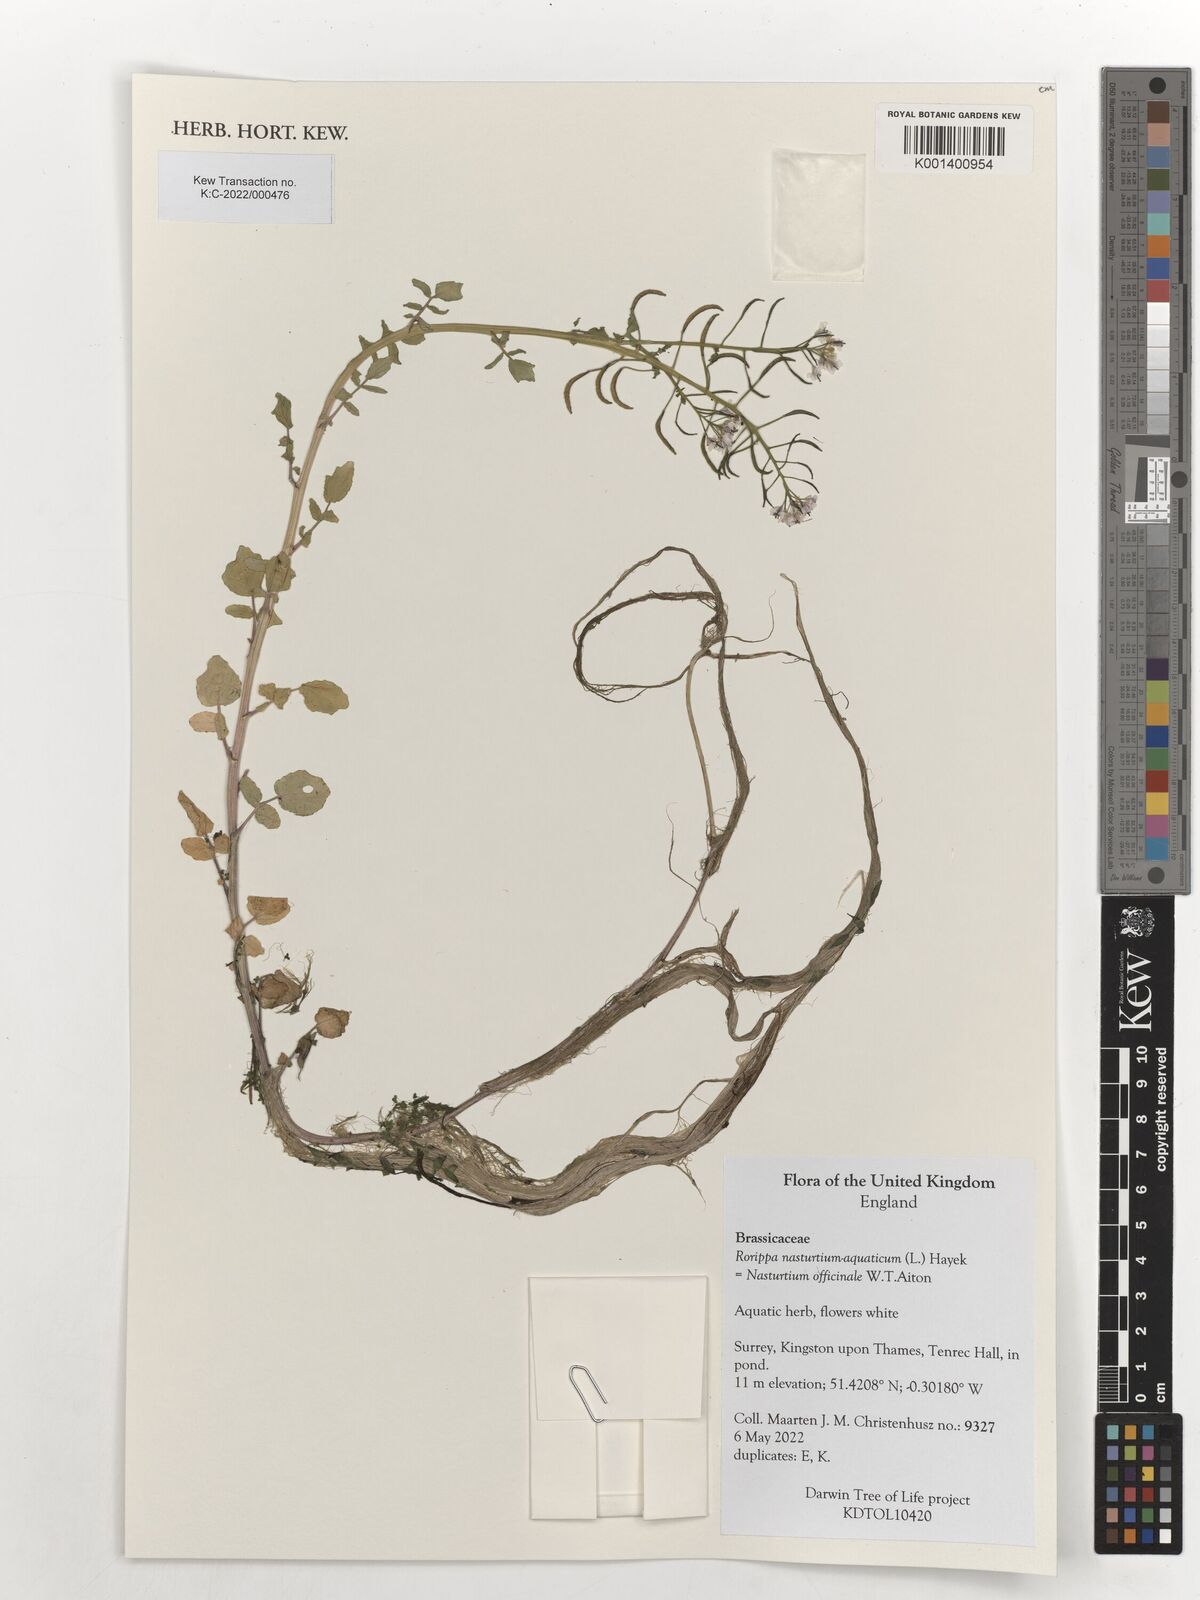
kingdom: Plantae
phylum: Tracheophyta
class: Magnoliopsida
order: Brassicales
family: Brassicaceae
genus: Nasturtium
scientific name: Nasturtium officinale
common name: Watercress
